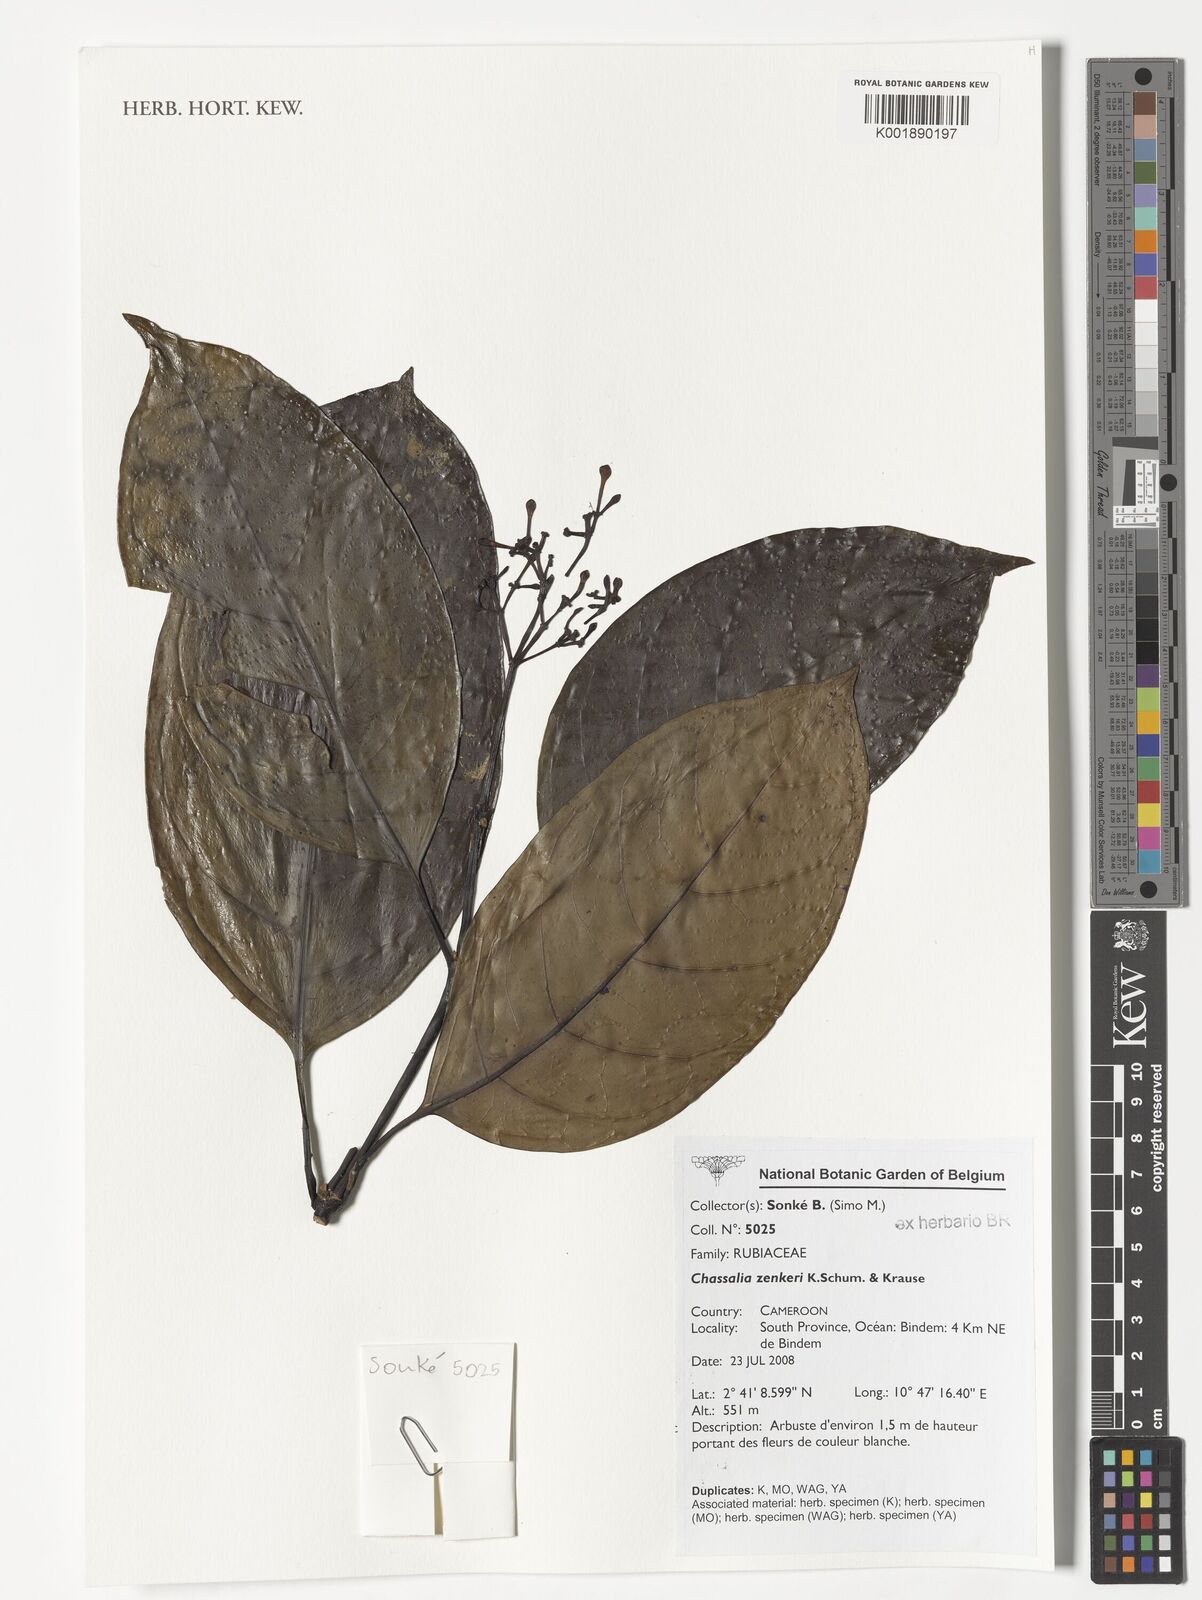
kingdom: Plantae
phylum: Tracheophyta
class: Magnoliopsida
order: Gentianales
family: Rubiaceae
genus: Chassalia
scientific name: Chassalia zenkeri
